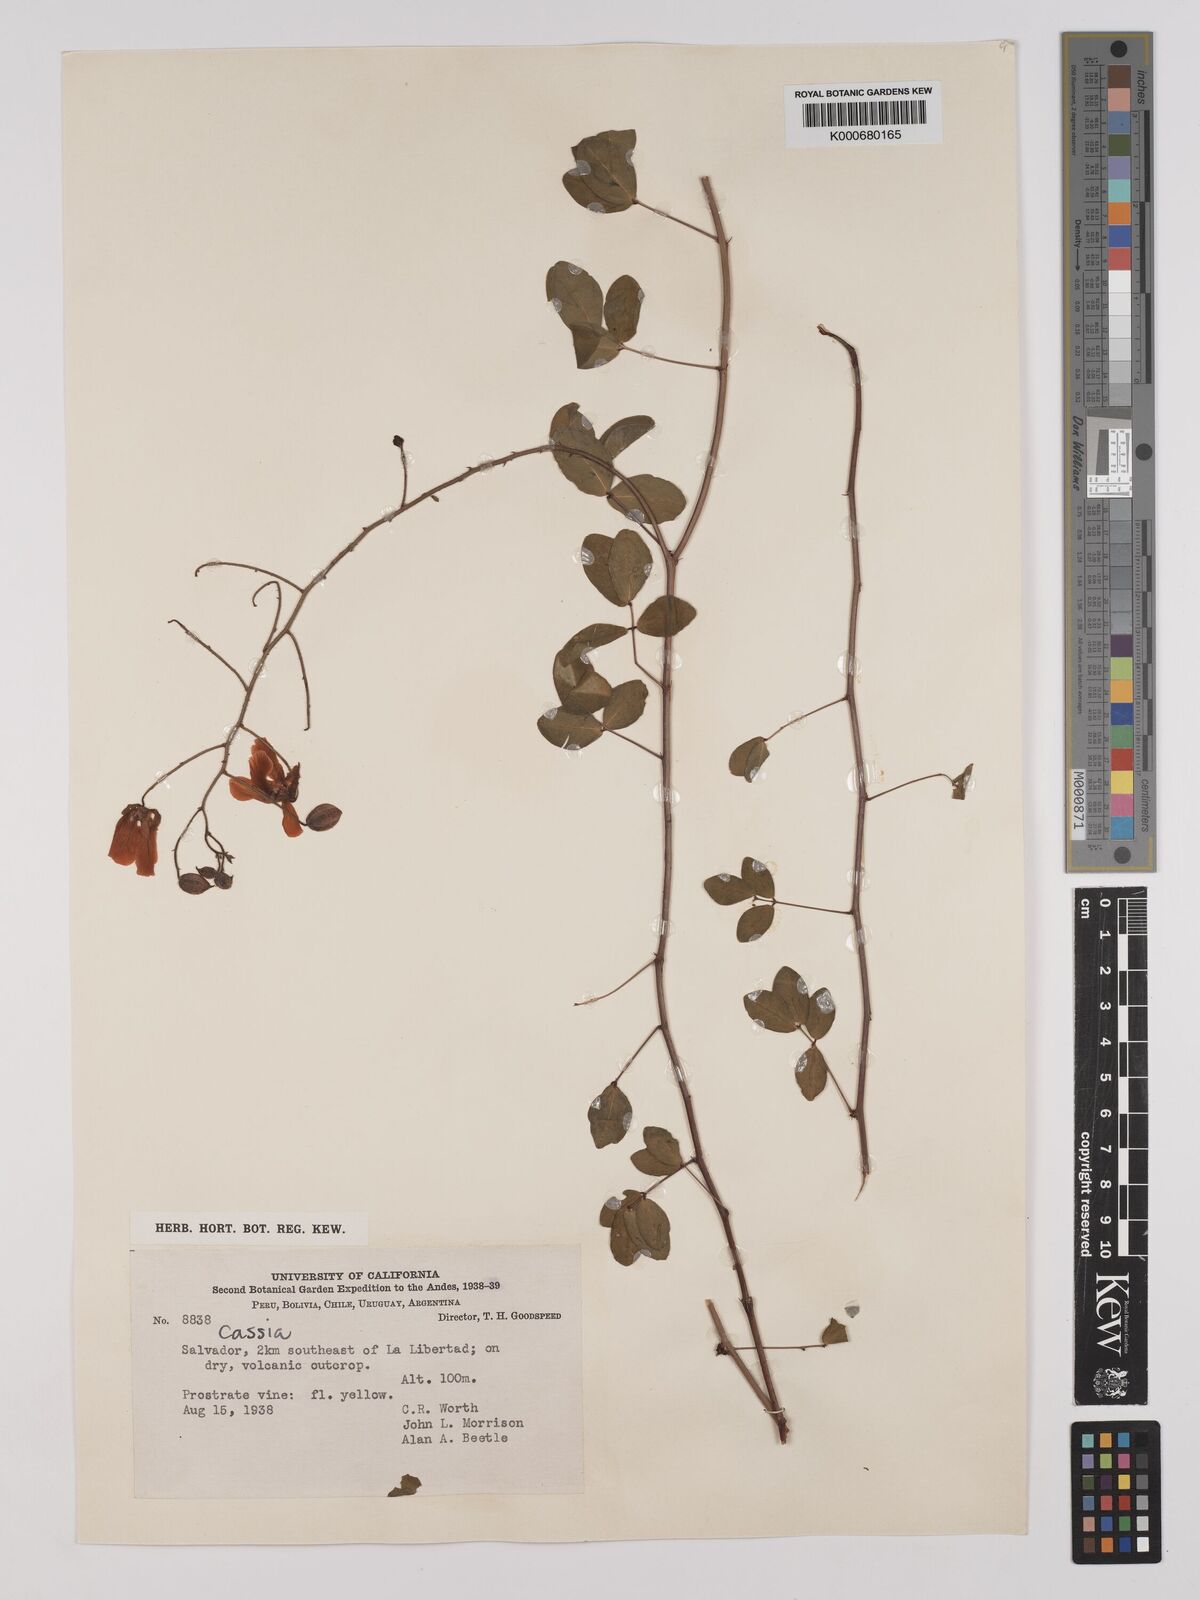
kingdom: Plantae
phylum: Tracheophyta
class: Magnoliopsida
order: Fabales
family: Fabaceae
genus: Chamaecrista
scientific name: Chamaecrista hispidula
